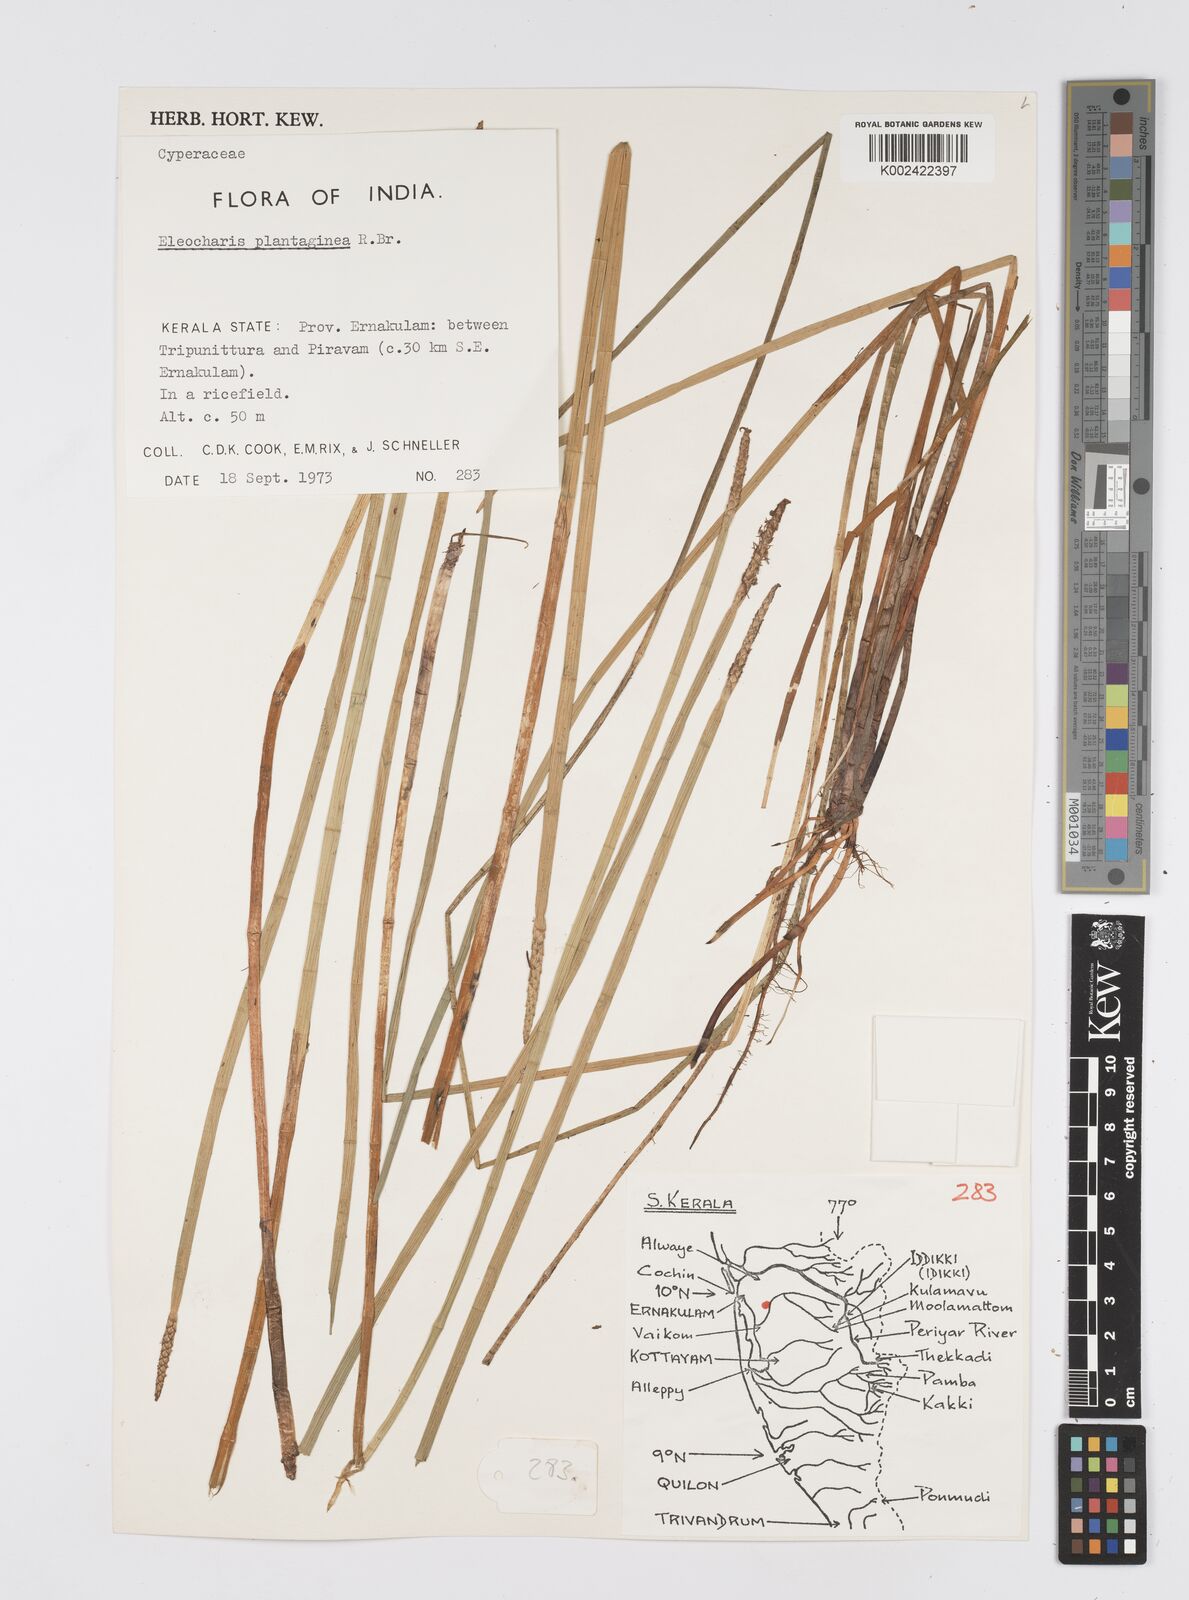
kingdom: Plantae
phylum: Tracheophyta
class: Liliopsida
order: Poales
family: Cyperaceae
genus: Eleocharis
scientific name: Eleocharis dulcis
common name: Chinese water chestnut
